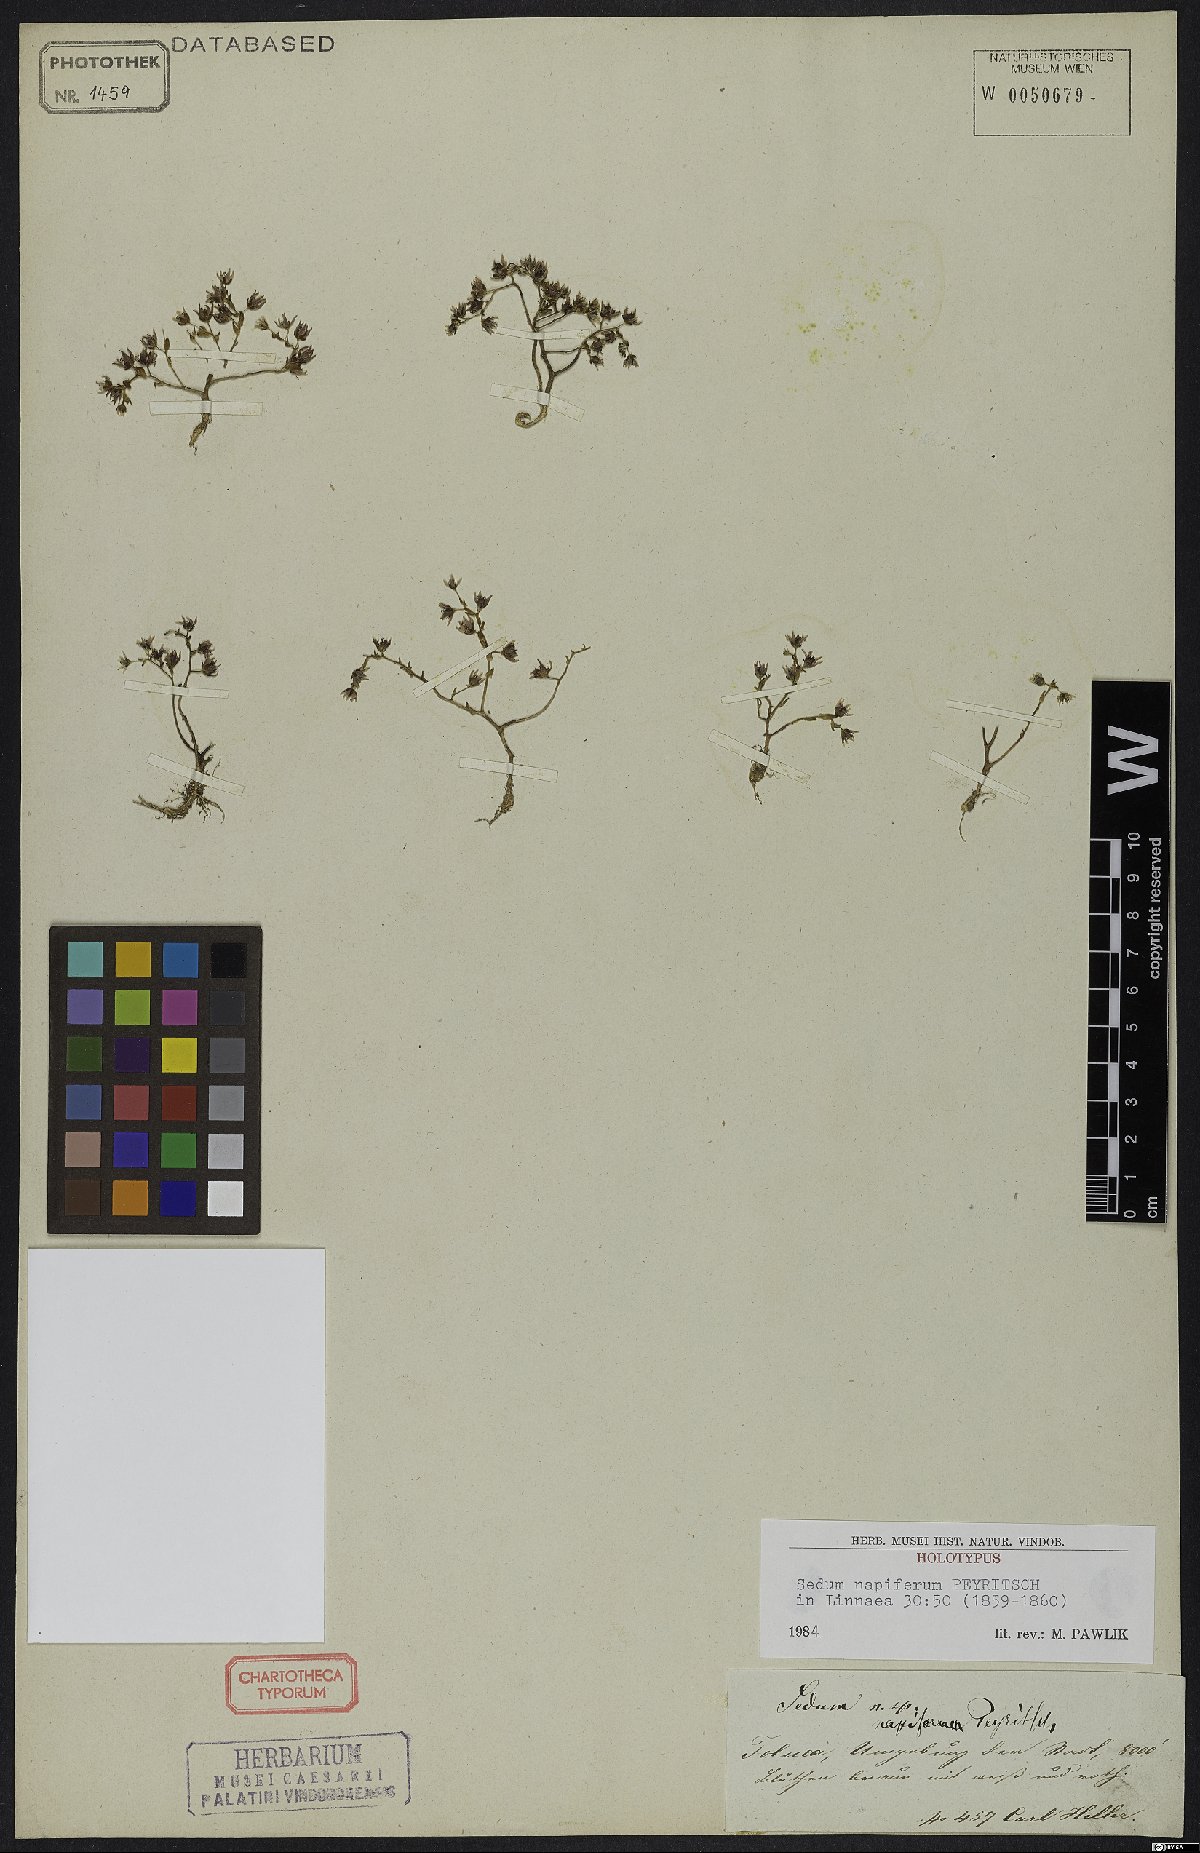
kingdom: Plantae
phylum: Tracheophyta
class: Magnoliopsida
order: Saxifragales
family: Crassulaceae
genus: Sedum
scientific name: Sedum napiferum
